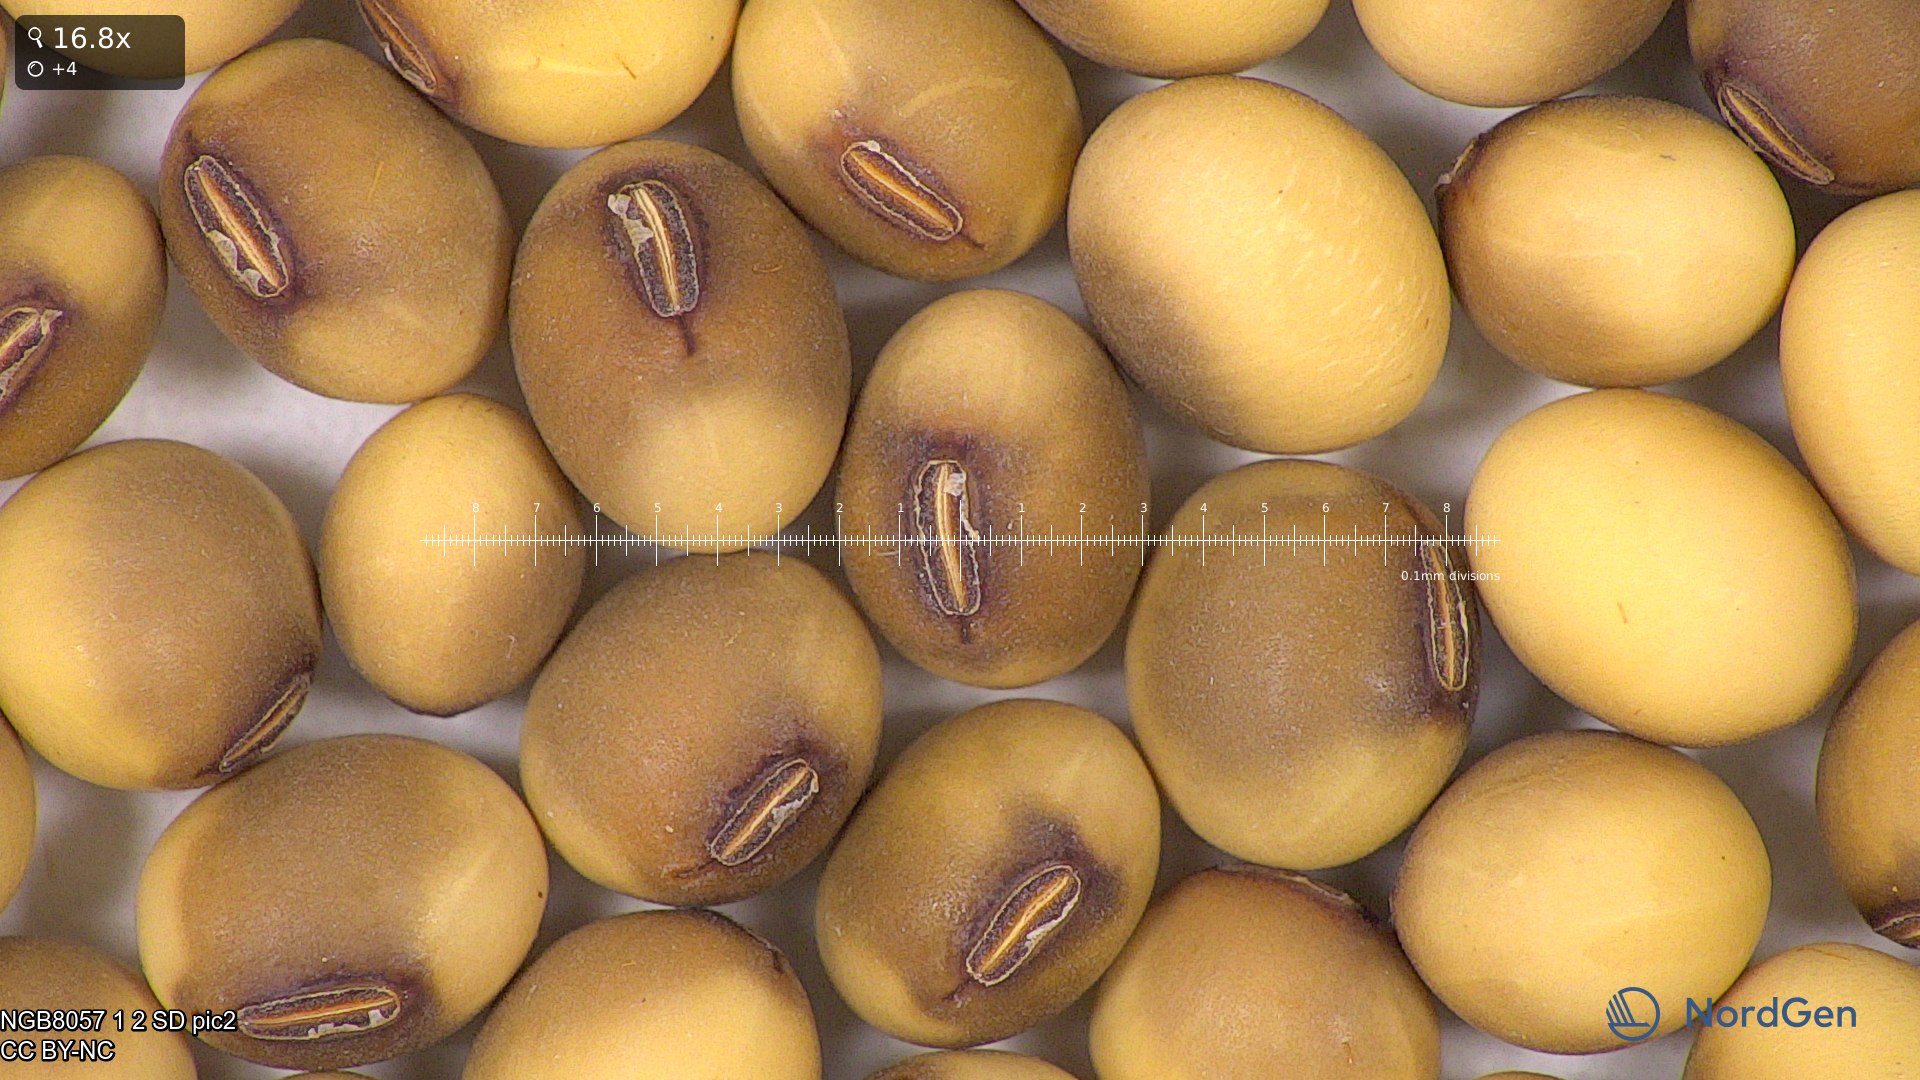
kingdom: Plantae
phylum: Tracheophyta
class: Magnoliopsida
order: Fabales
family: Fabaceae
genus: Glycine
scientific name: Glycine max
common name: Soya-bean
